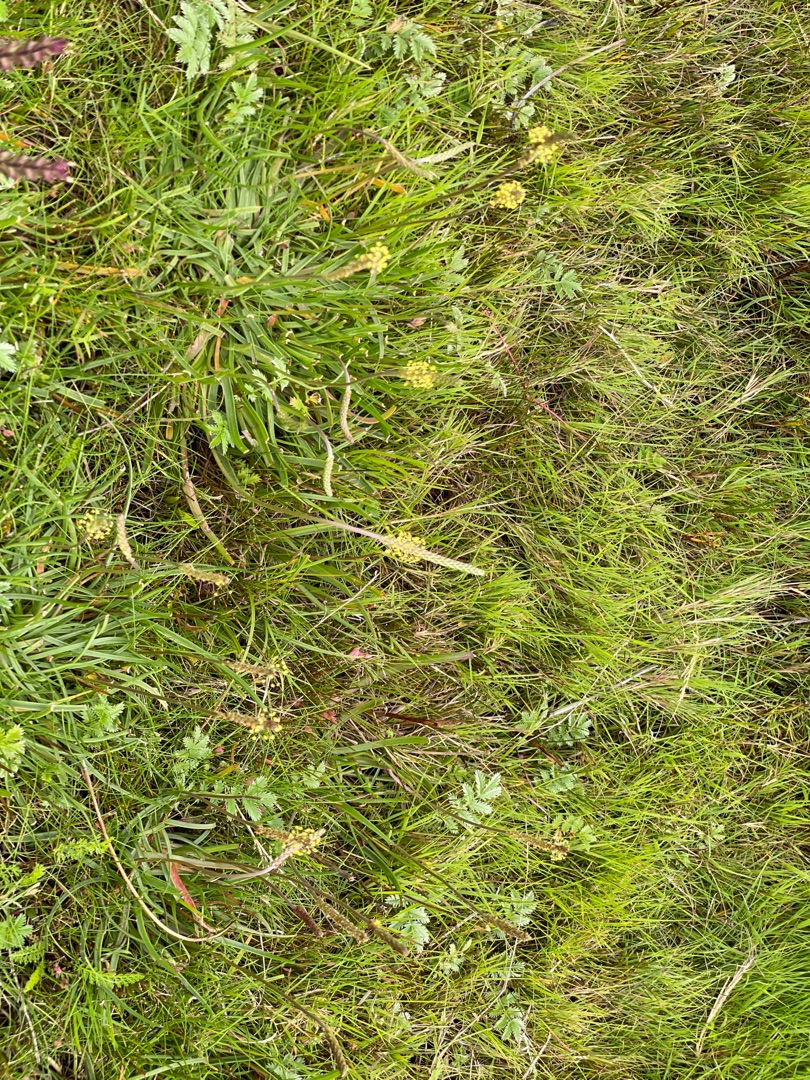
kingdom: Plantae
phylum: Tracheophyta
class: Magnoliopsida
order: Lamiales
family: Plantaginaceae
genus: Plantago
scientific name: Plantago maritima
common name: Strand-vejbred
